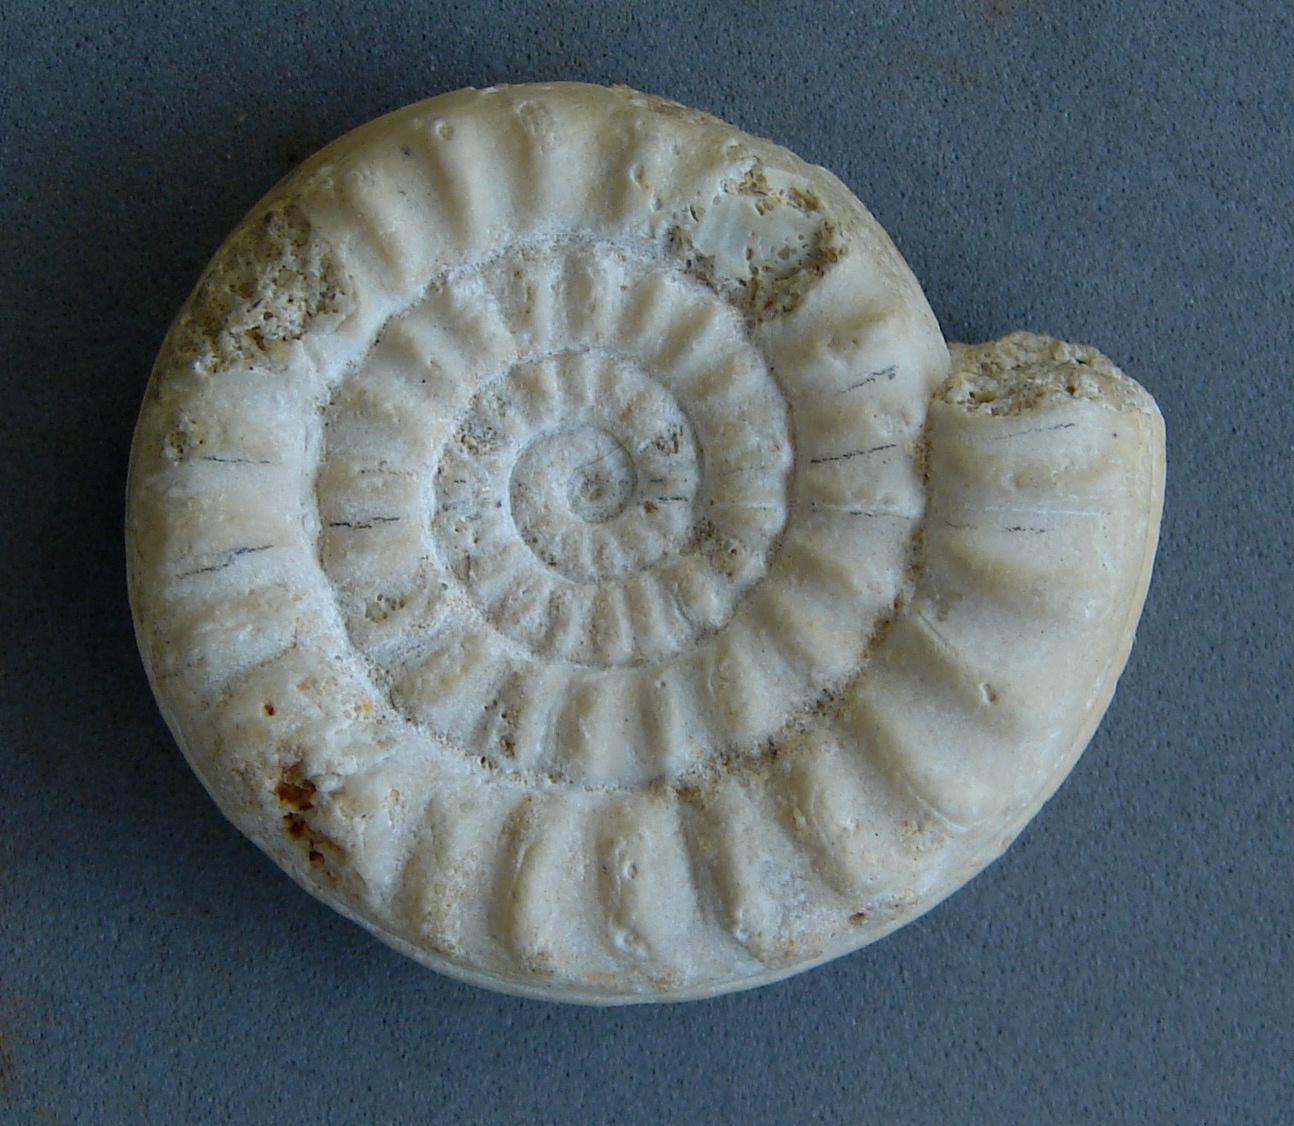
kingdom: Animalia
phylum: Mollusca
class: Cephalopoda
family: Arietitidae
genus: Schreinbachites
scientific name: Schreinbachites Gyrophioceras praecursor
